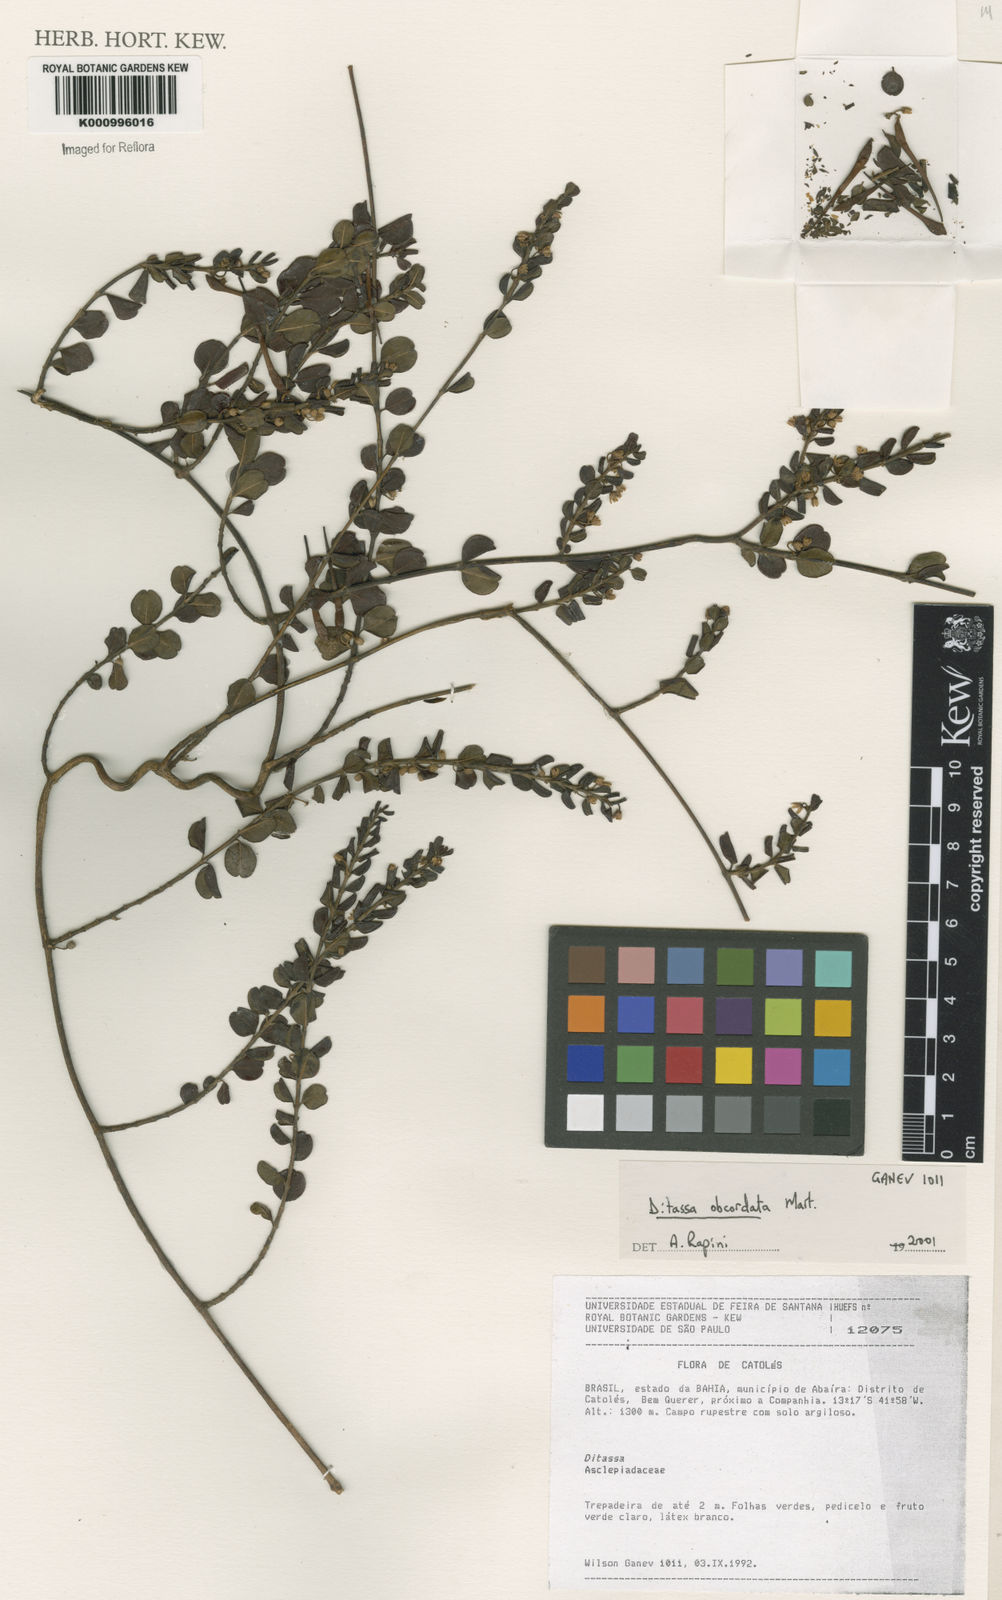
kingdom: Plantae
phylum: Tracheophyta
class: Magnoliopsida
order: Gentianales
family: Apocynaceae
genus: Ditassa
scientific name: Ditassa obcordata
